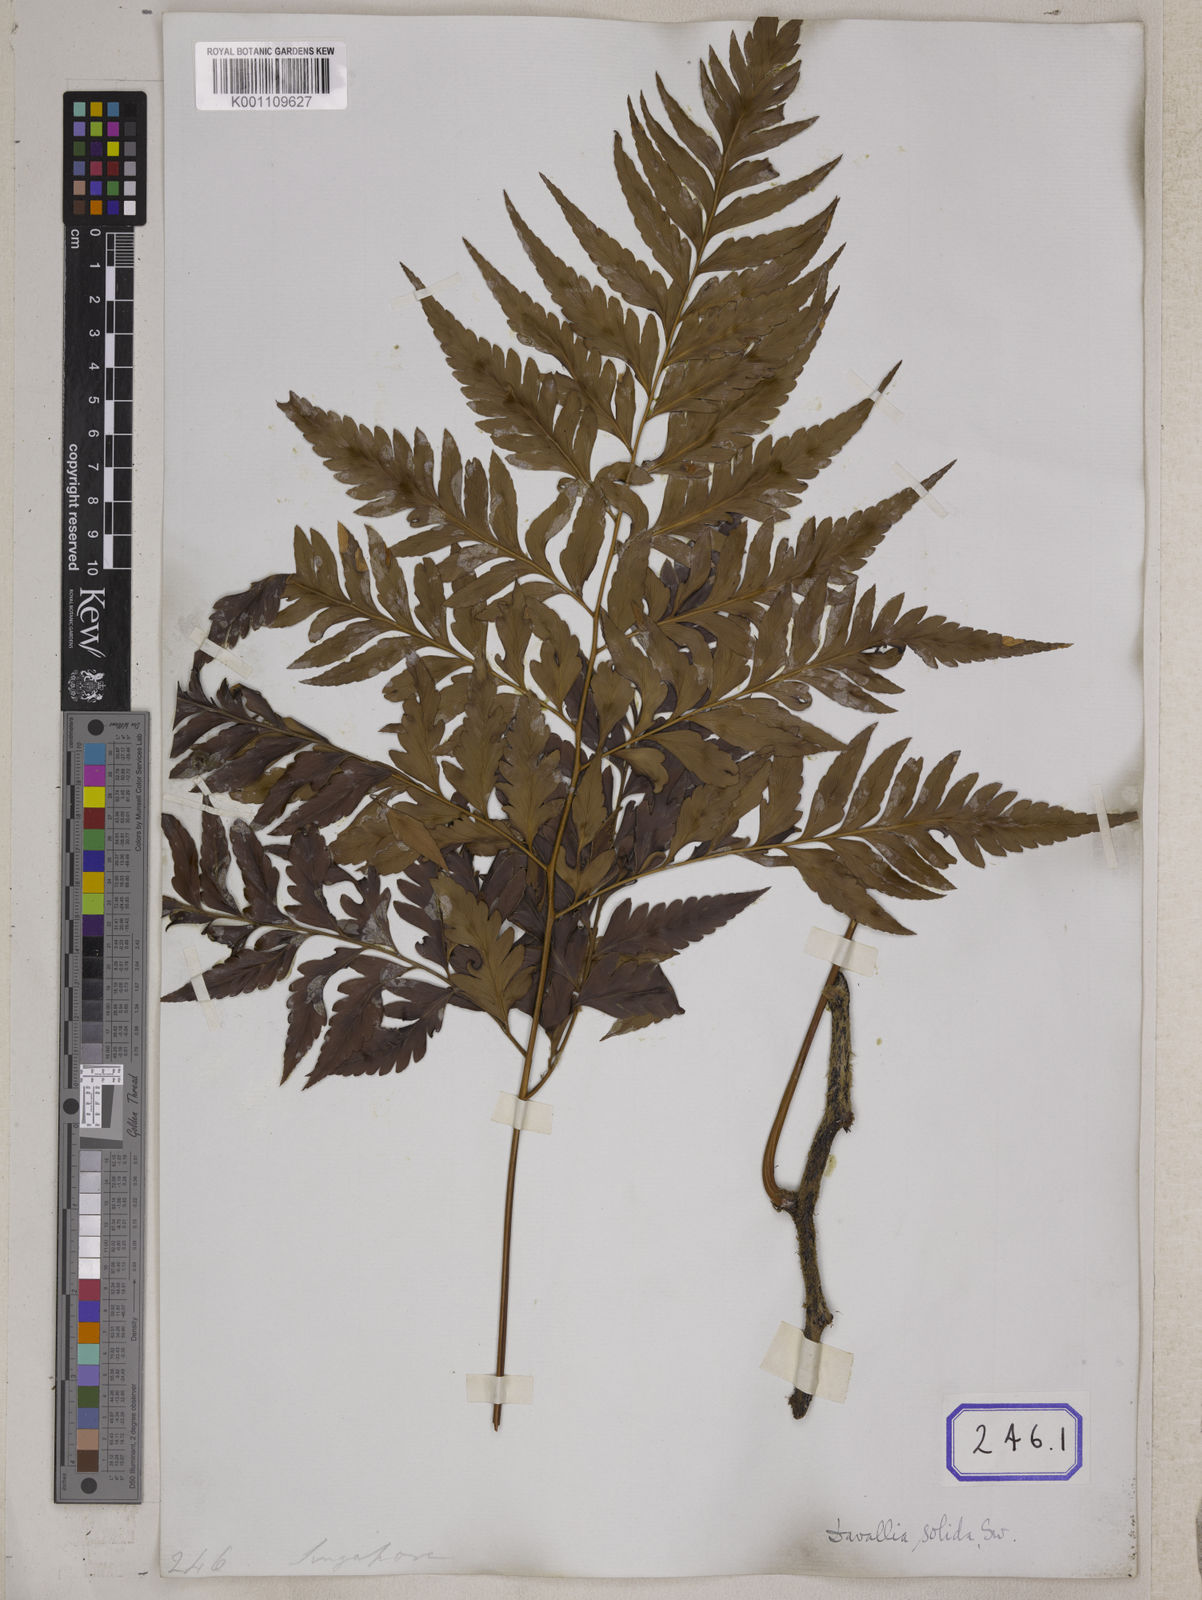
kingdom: Plantae
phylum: Tracheophyta
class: Polypodiopsida
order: Polypodiales
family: Davalliaceae
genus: Davallia
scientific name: Davallia solida
